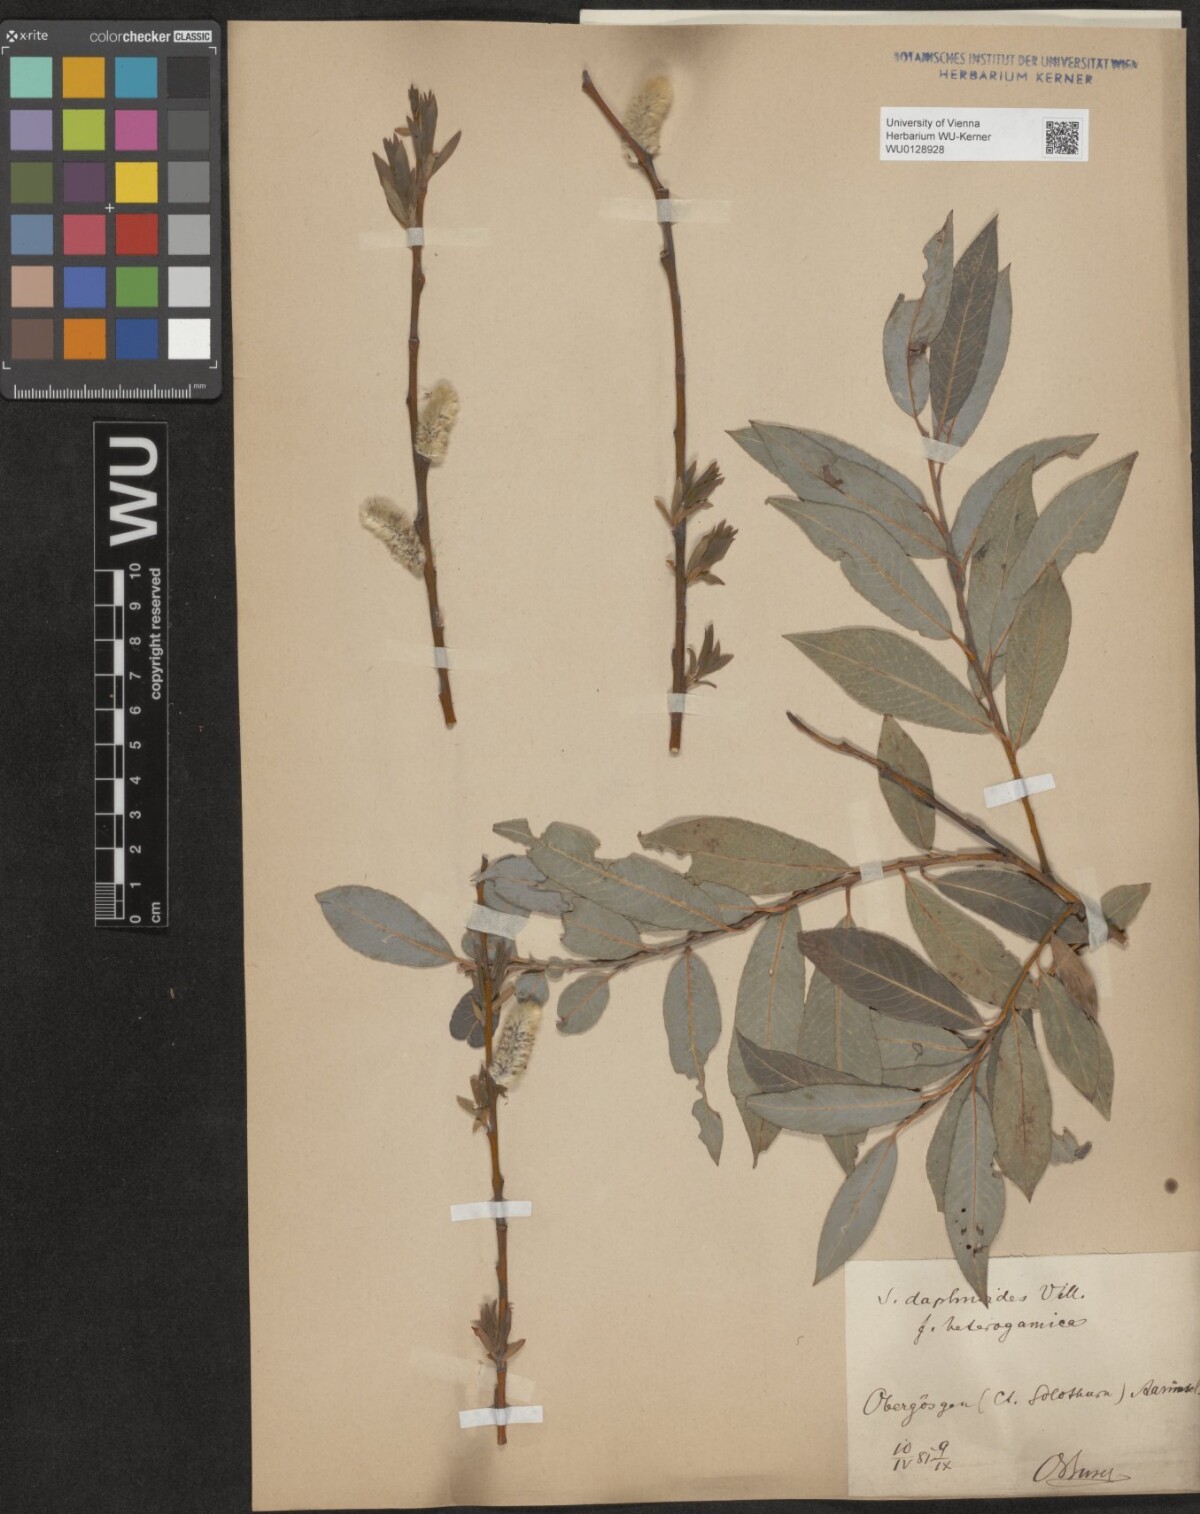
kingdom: Plantae
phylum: Tracheophyta
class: Magnoliopsida
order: Malpighiales
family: Salicaceae
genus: Salix
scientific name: Salix daphnoides
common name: European violet-willow
